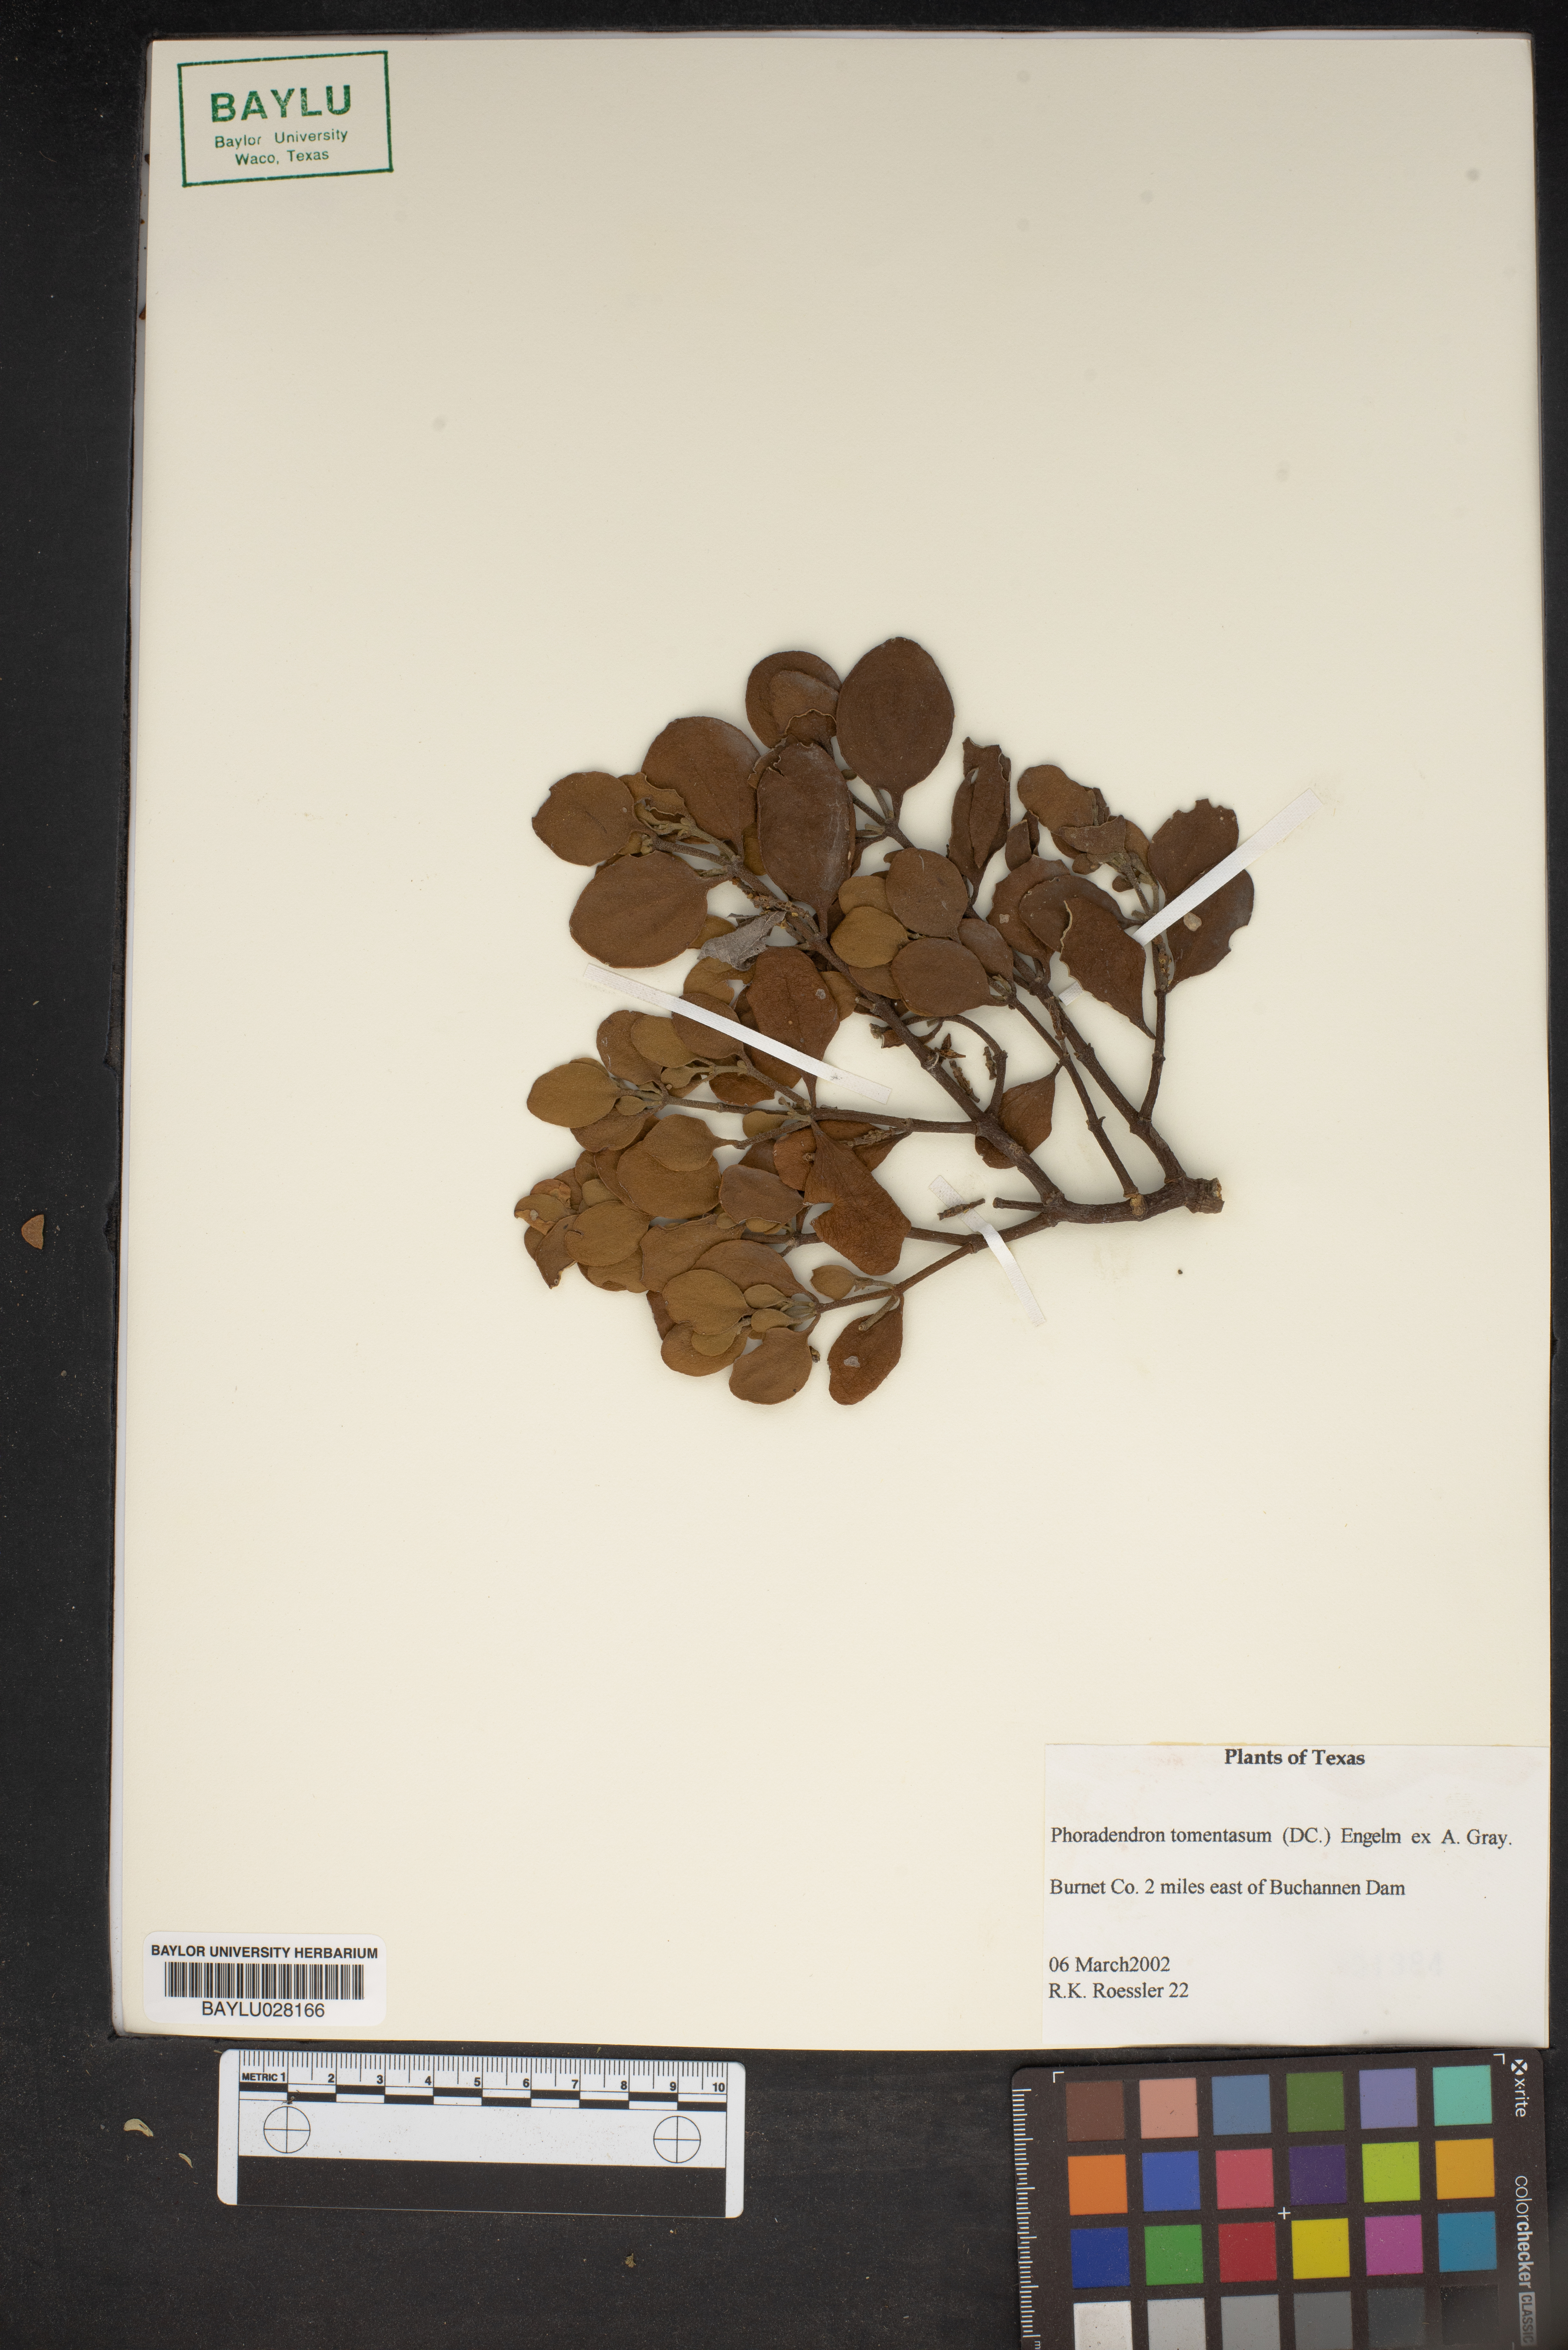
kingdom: Plantae
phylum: Tracheophyta
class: Magnoliopsida
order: Santalales
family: Viscaceae
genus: Phoradendron
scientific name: Phoradendron leucarpum
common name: Pacific mistletoe
